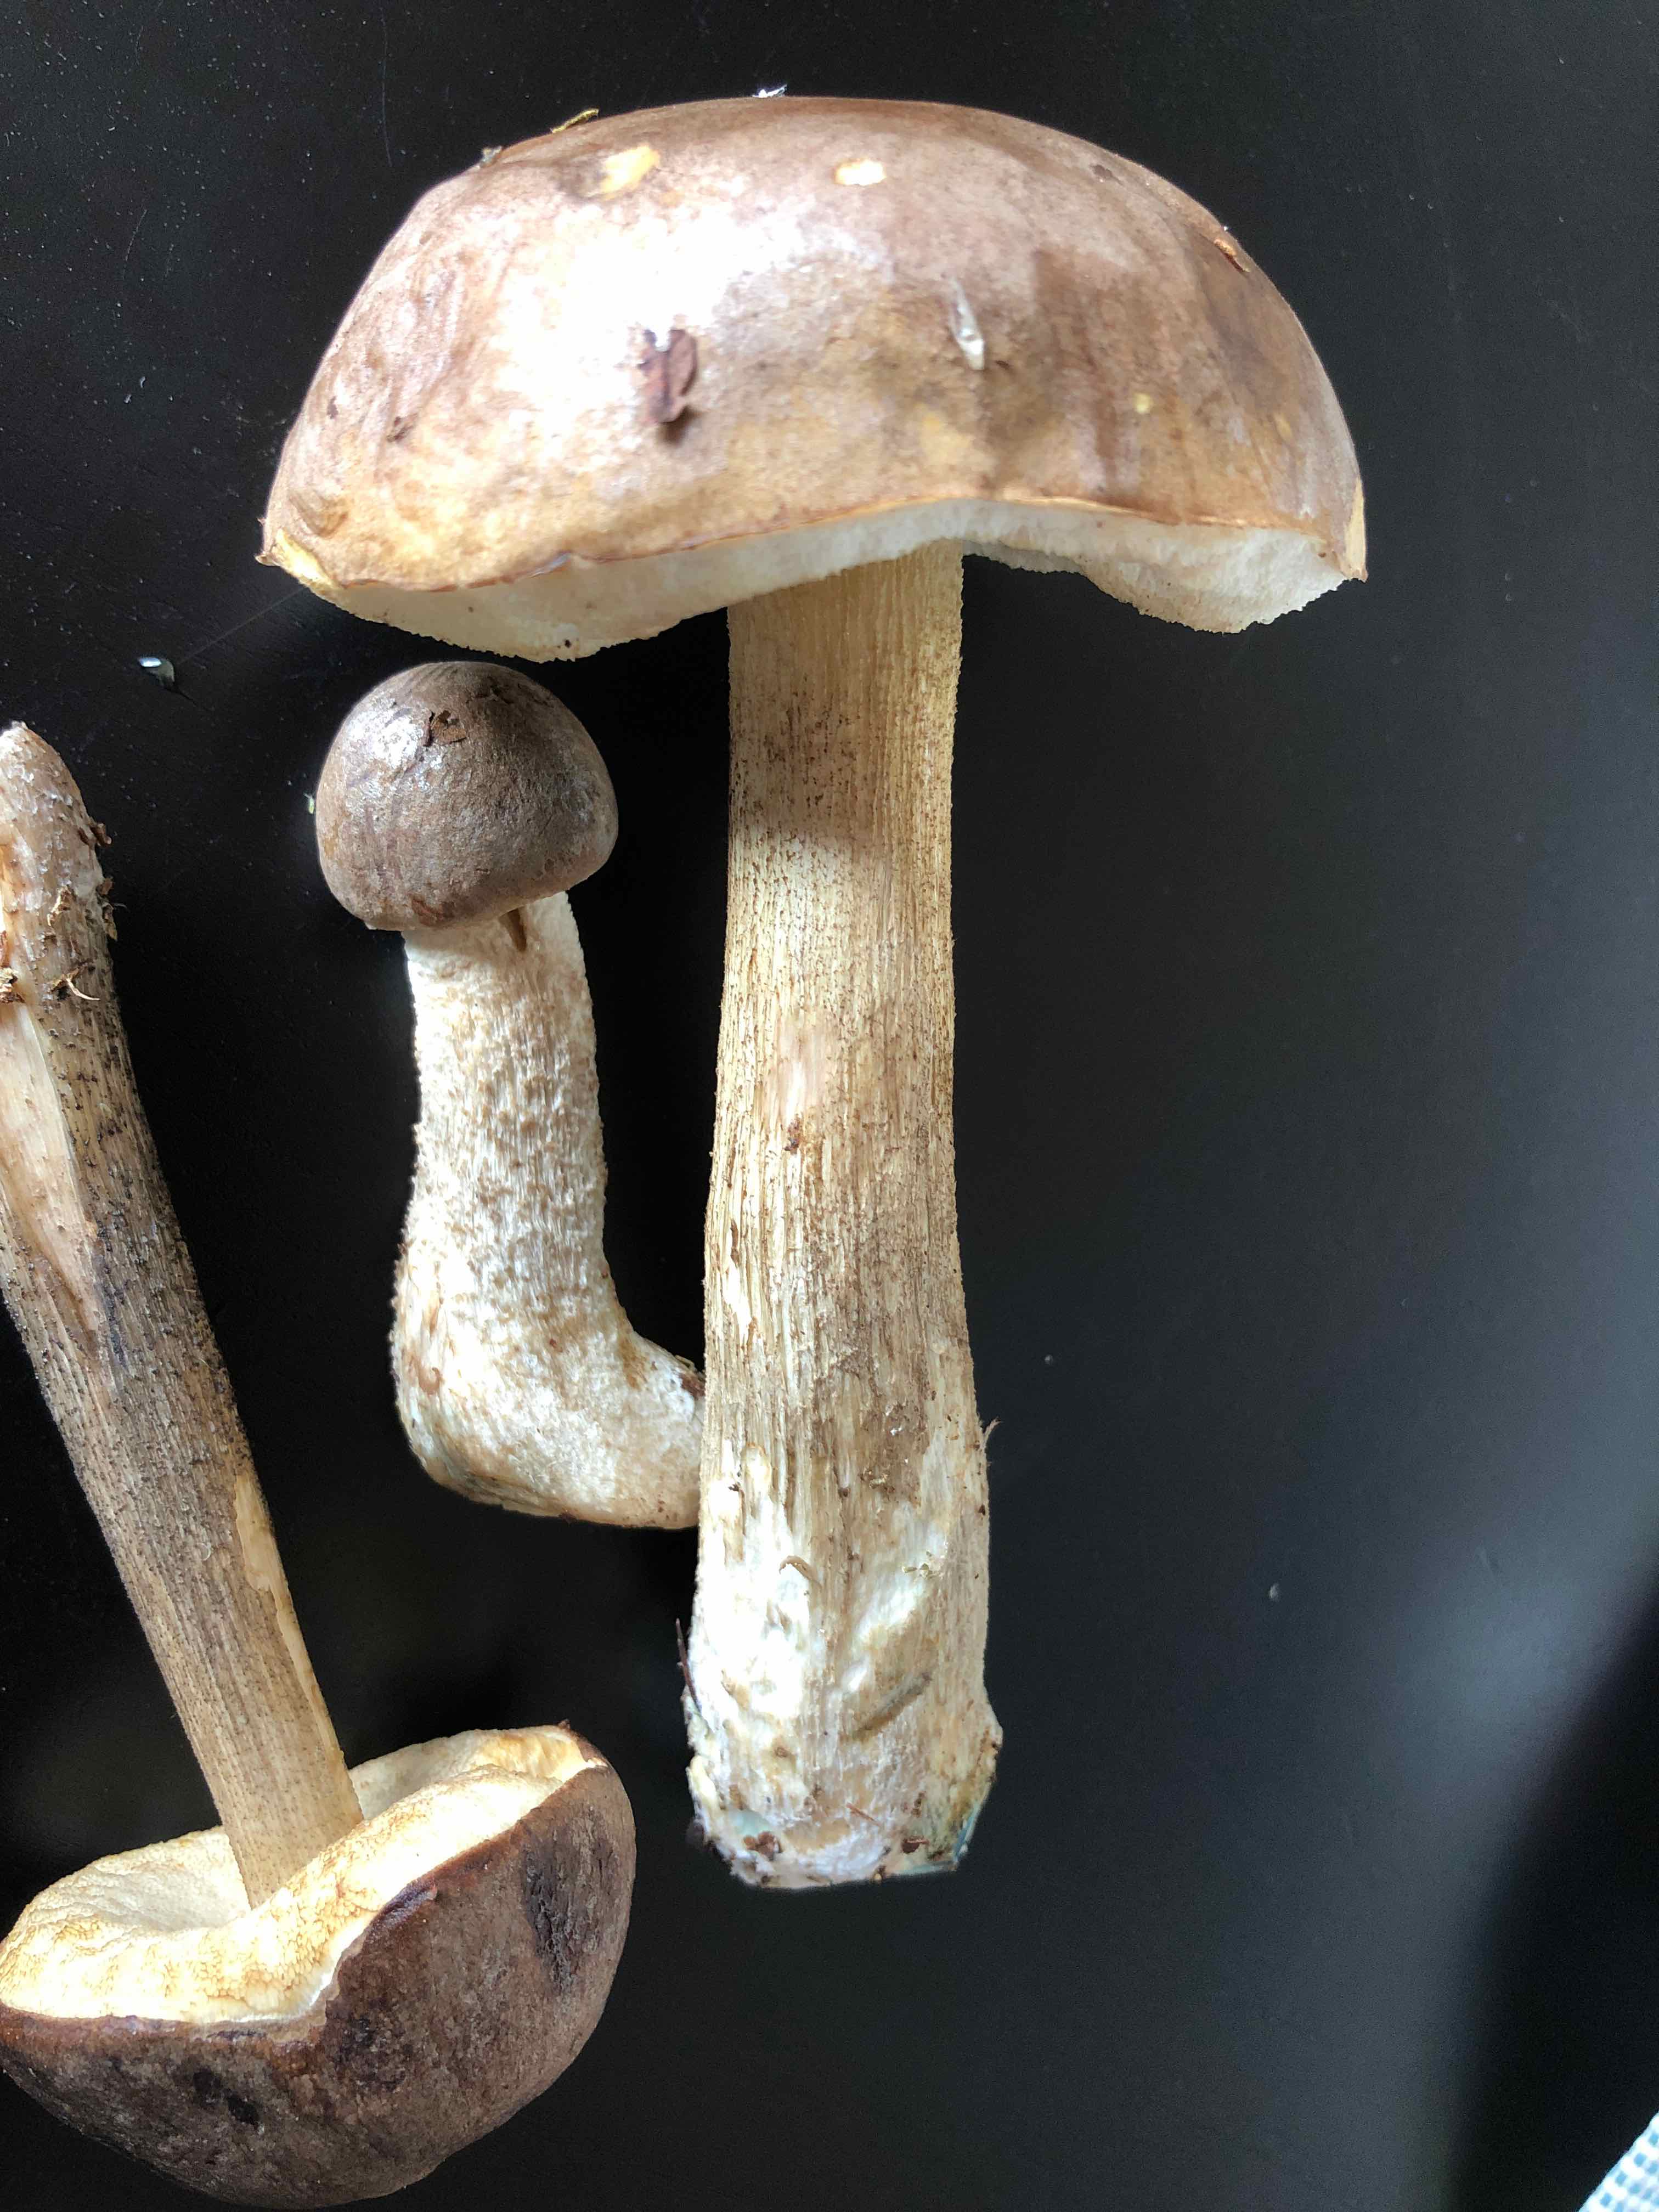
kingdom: Fungi
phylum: Basidiomycota
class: Agaricomycetes
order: Boletales
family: Boletaceae
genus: Leccinum
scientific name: Leccinum cyaneobasileucum
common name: almindelig skælrørhat
